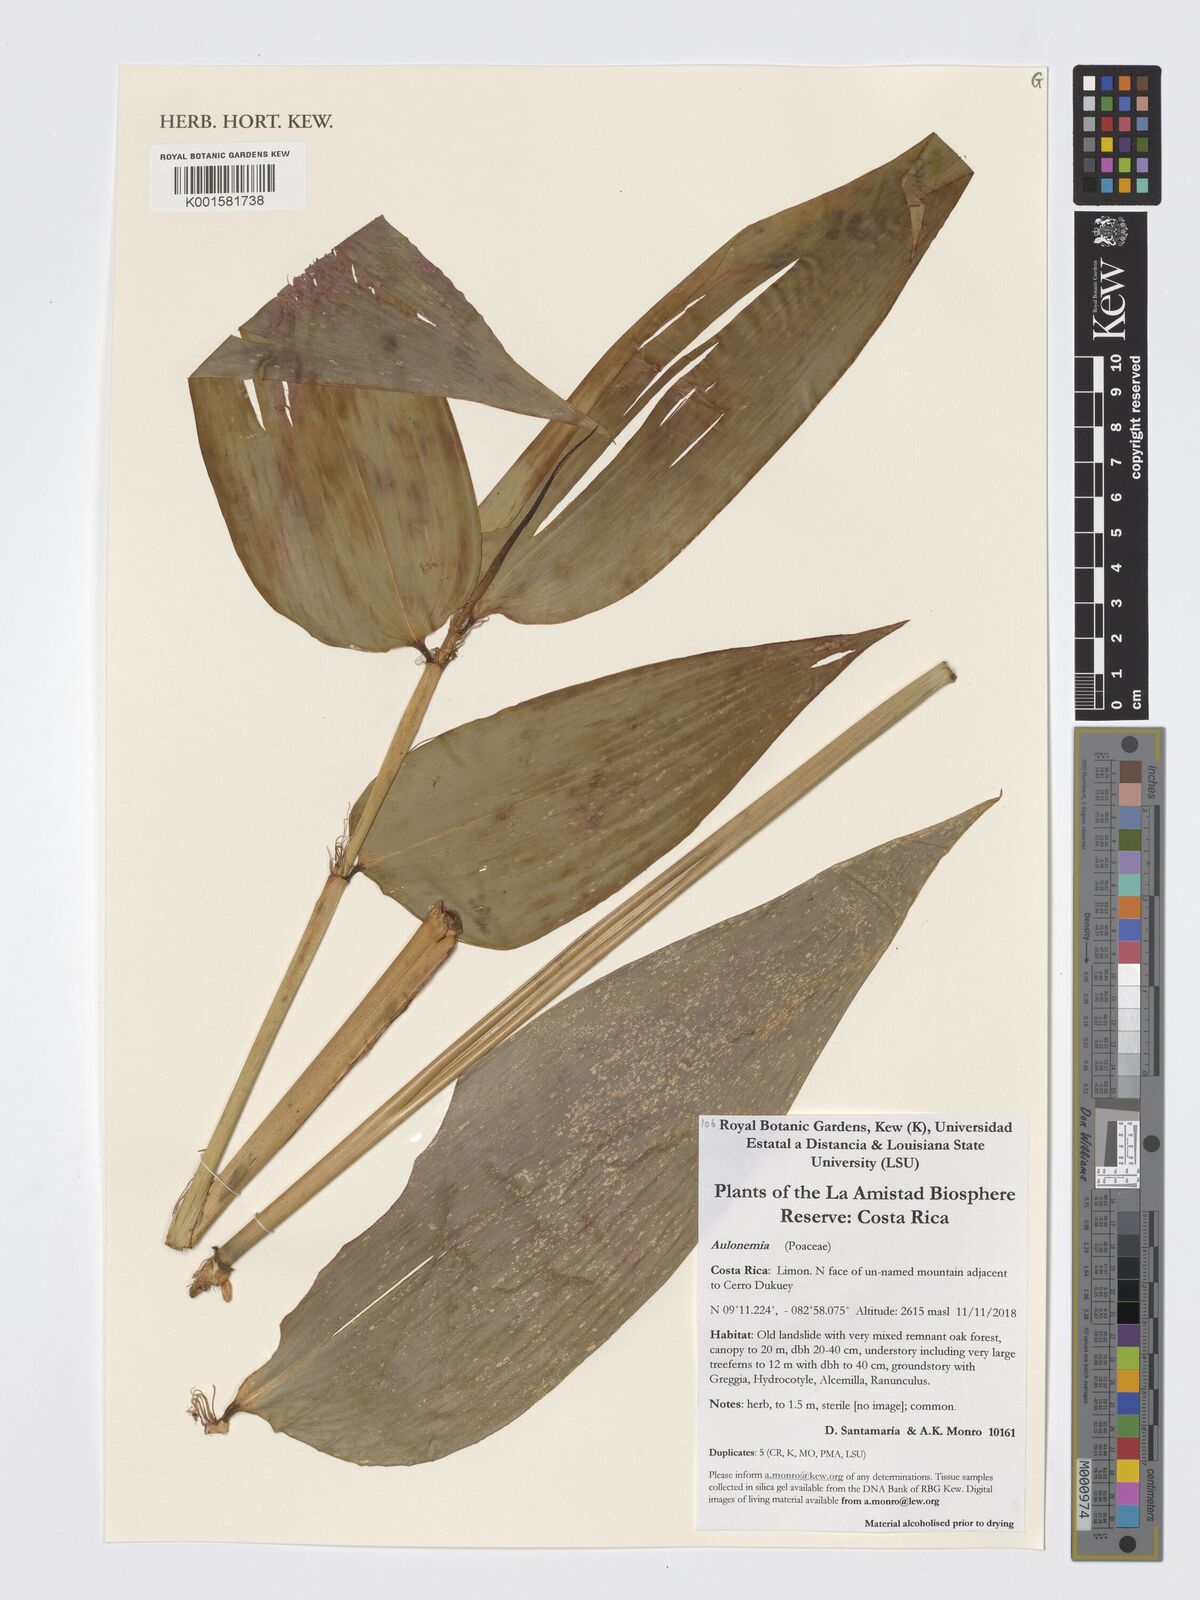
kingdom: Plantae
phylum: Tracheophyta
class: Liliopsida
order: Poales
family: Poaceae
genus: Aulonemia
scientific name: Aulonemia
